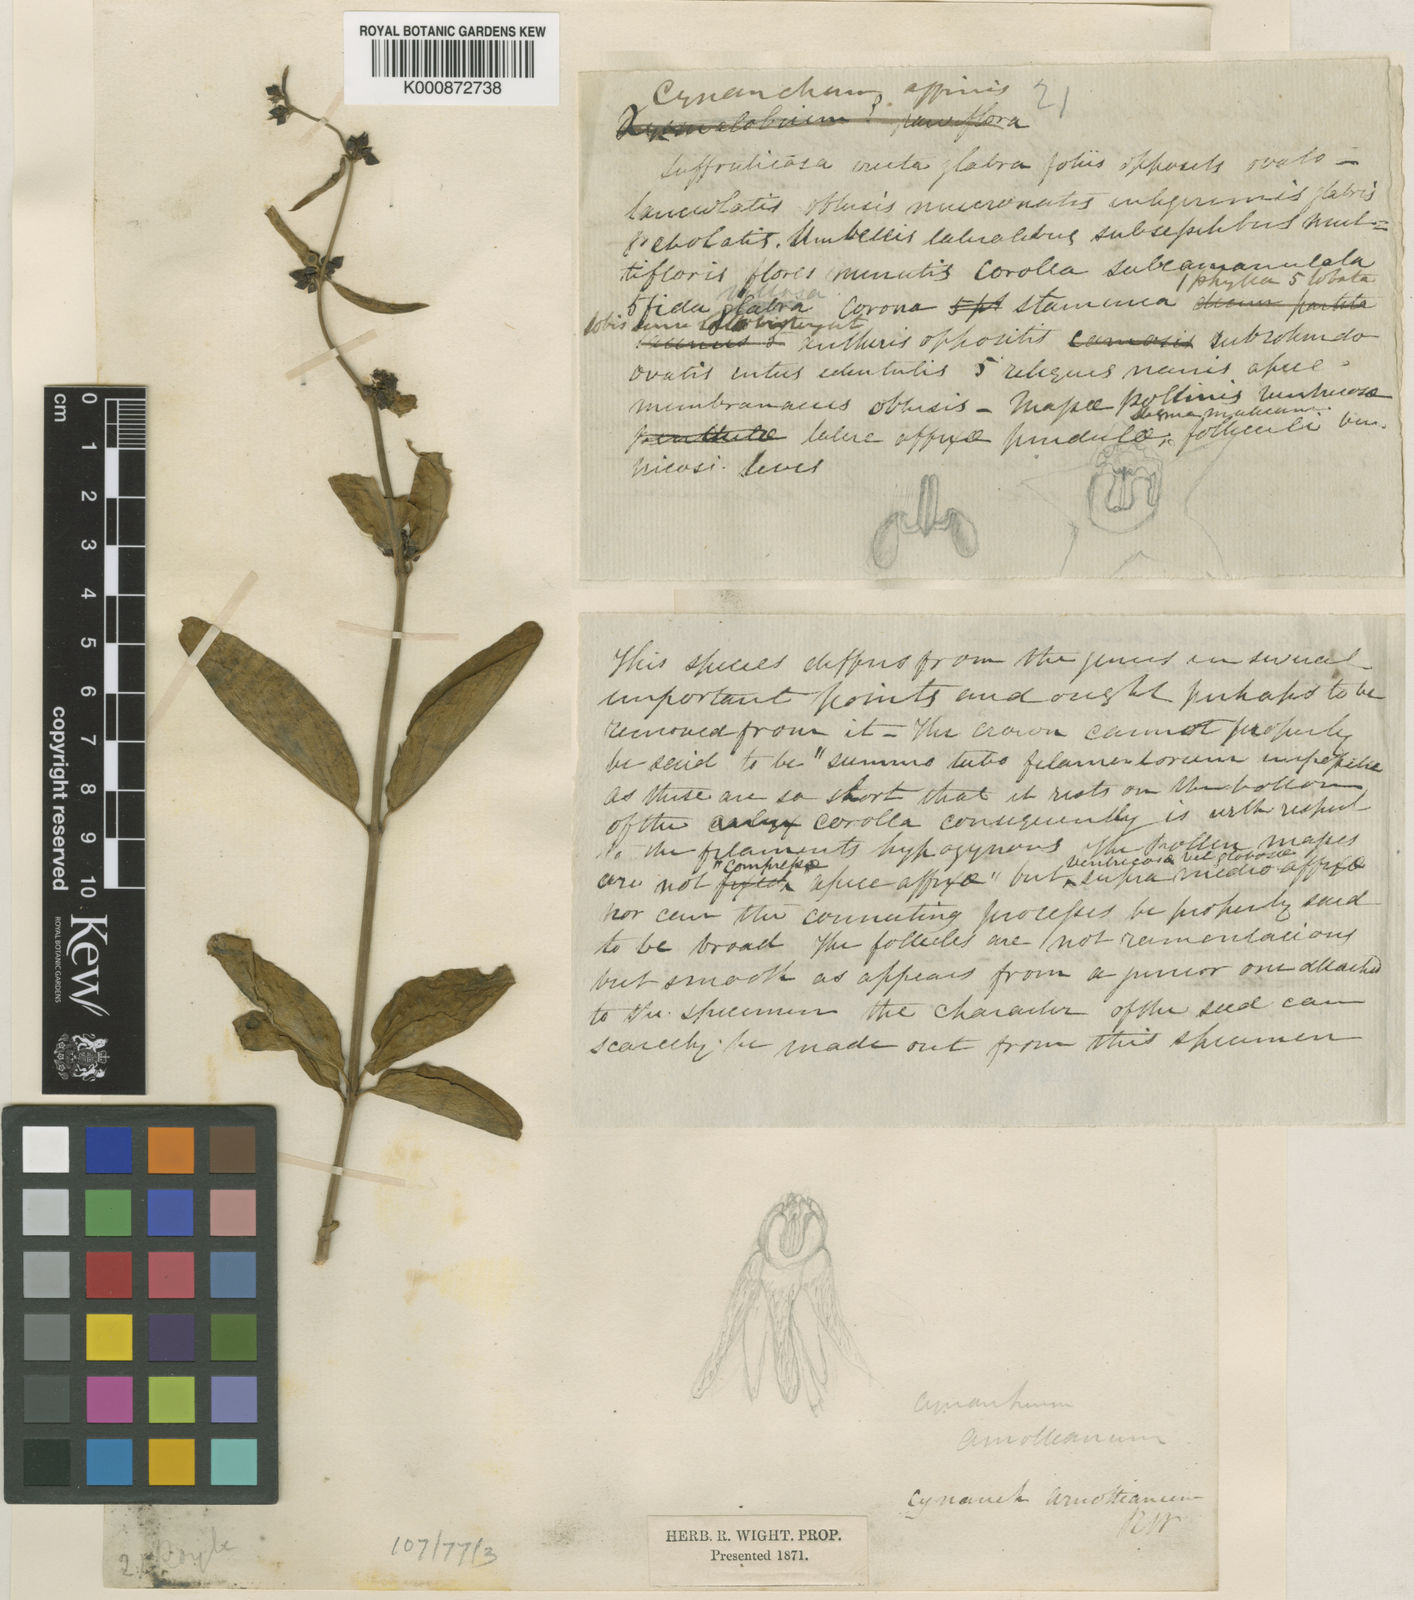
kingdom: Plantae
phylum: Tracheophyta
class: Magnoliopsida
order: Gentianales
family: Apocynaceae
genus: Vincetoxicum
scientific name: Vincetoxicum arnottianum
